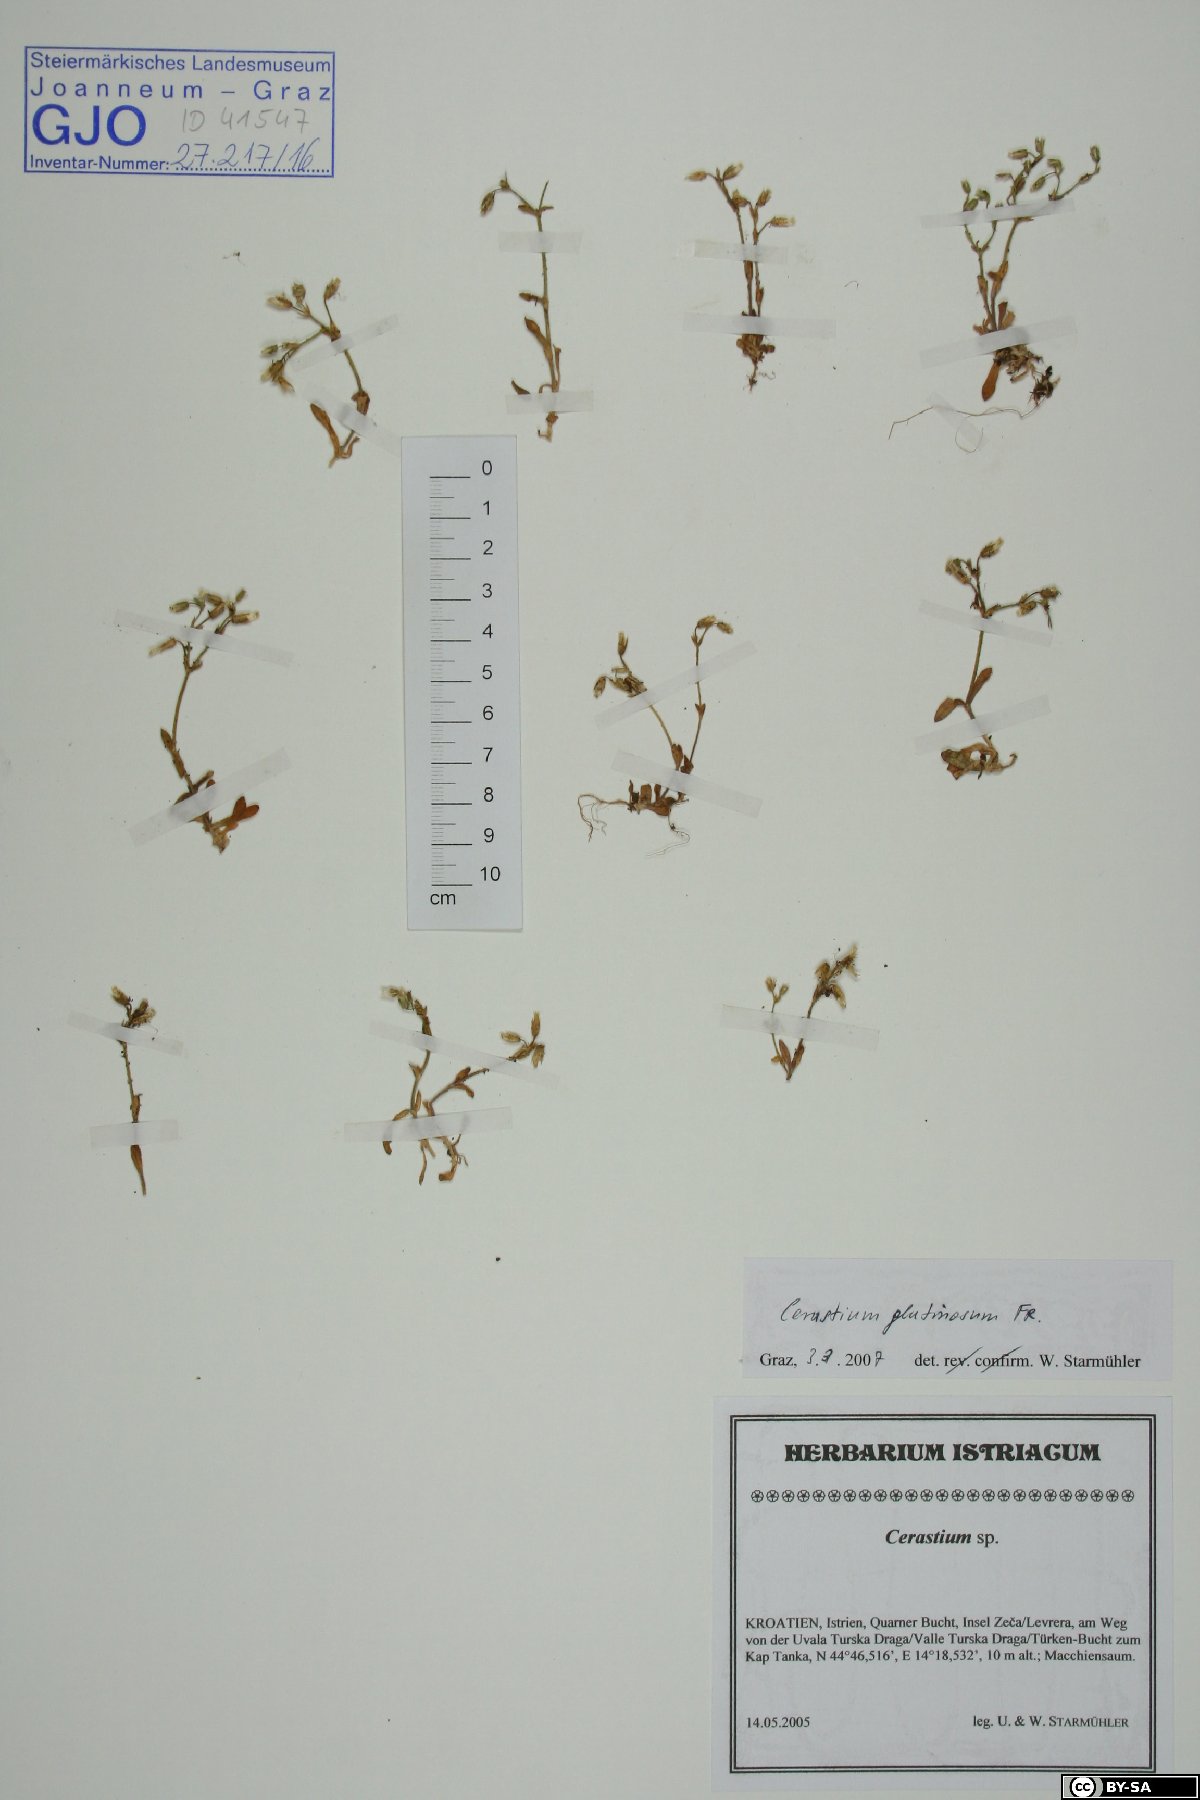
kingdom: Plantae
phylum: Tracheophyta
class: Magnoliopsida
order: Caryophyllales
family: Caryophyllaceae
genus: Cerastium
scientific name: Cerastium glutinosum
